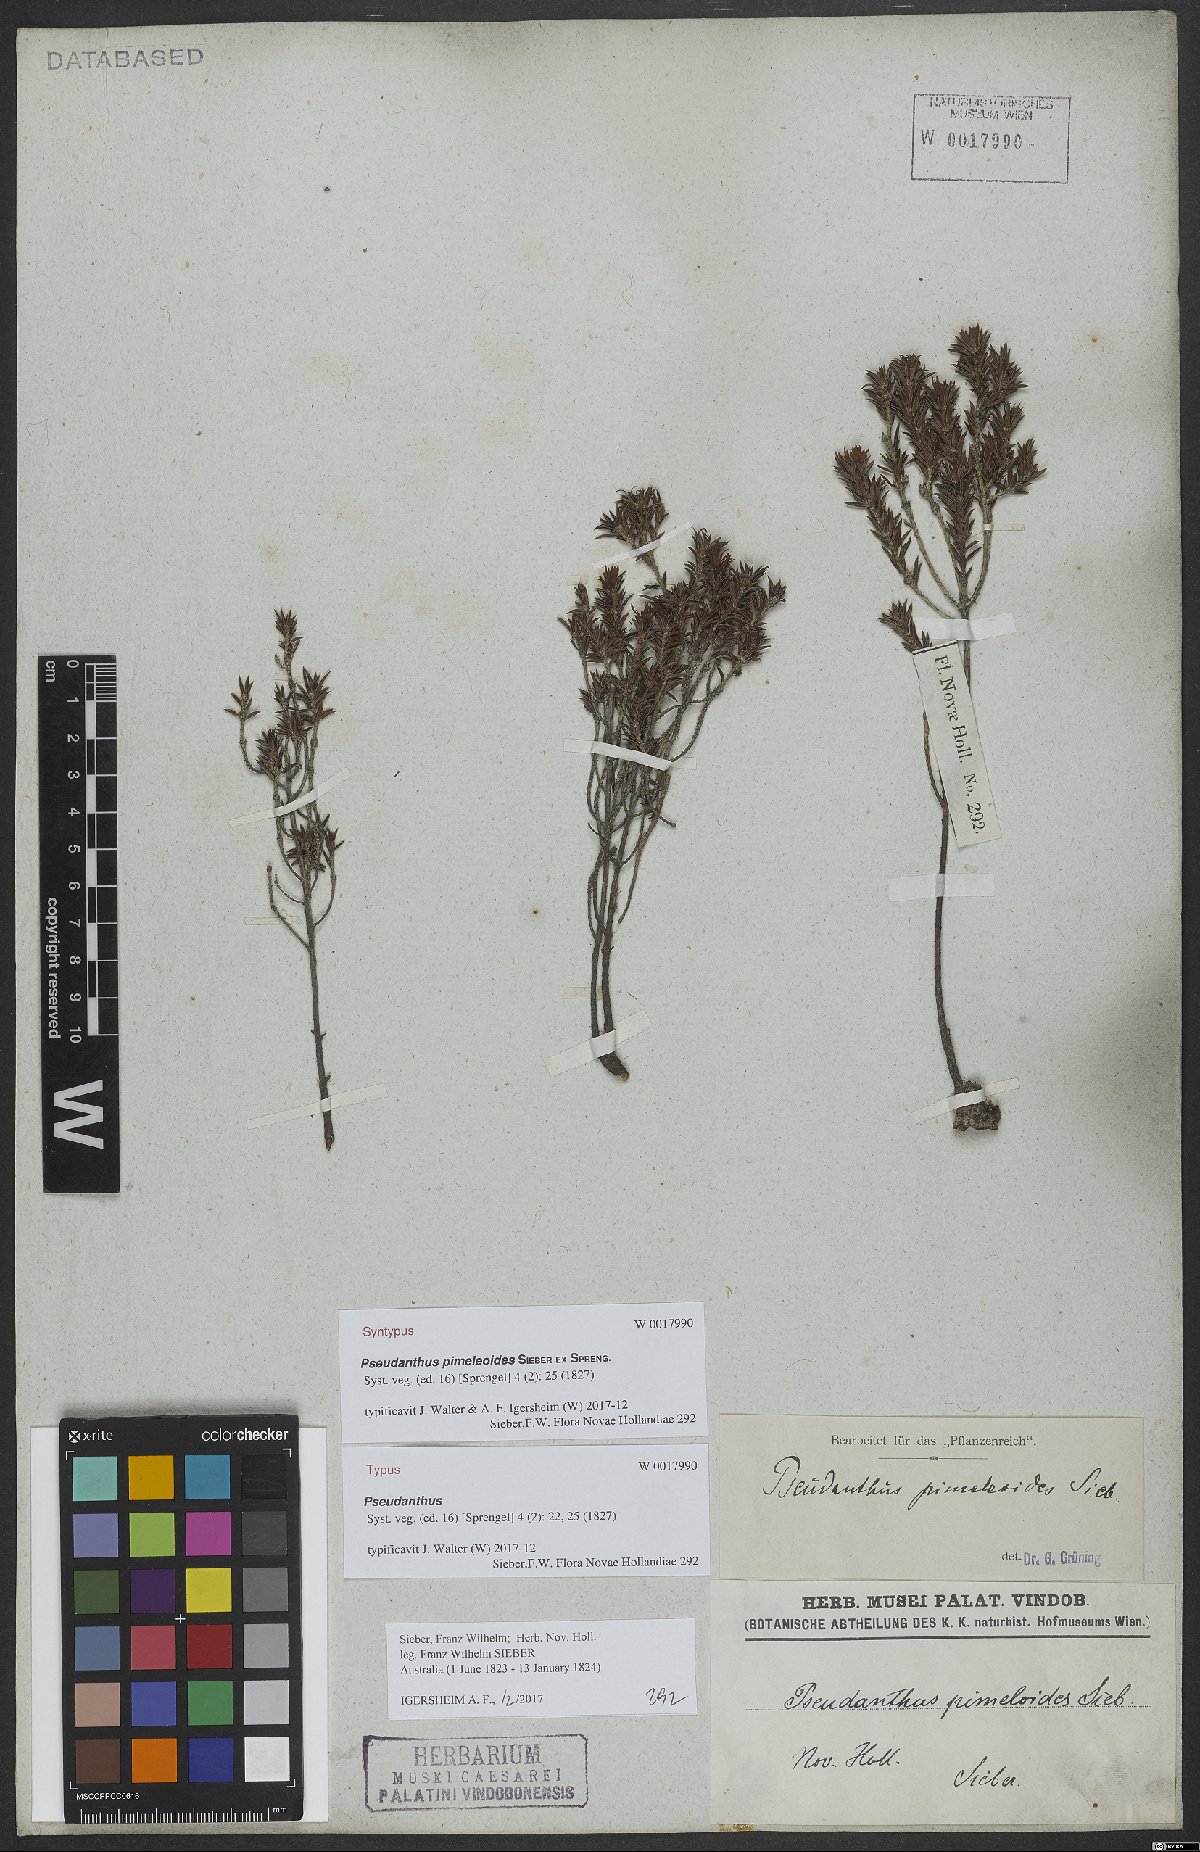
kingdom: Plantae
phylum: Tracheophyta
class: Magnoliopsida
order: Malpighiales
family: Picrodendraceae
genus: Pseudanthus
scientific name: Pseudanthus pimeleoides
